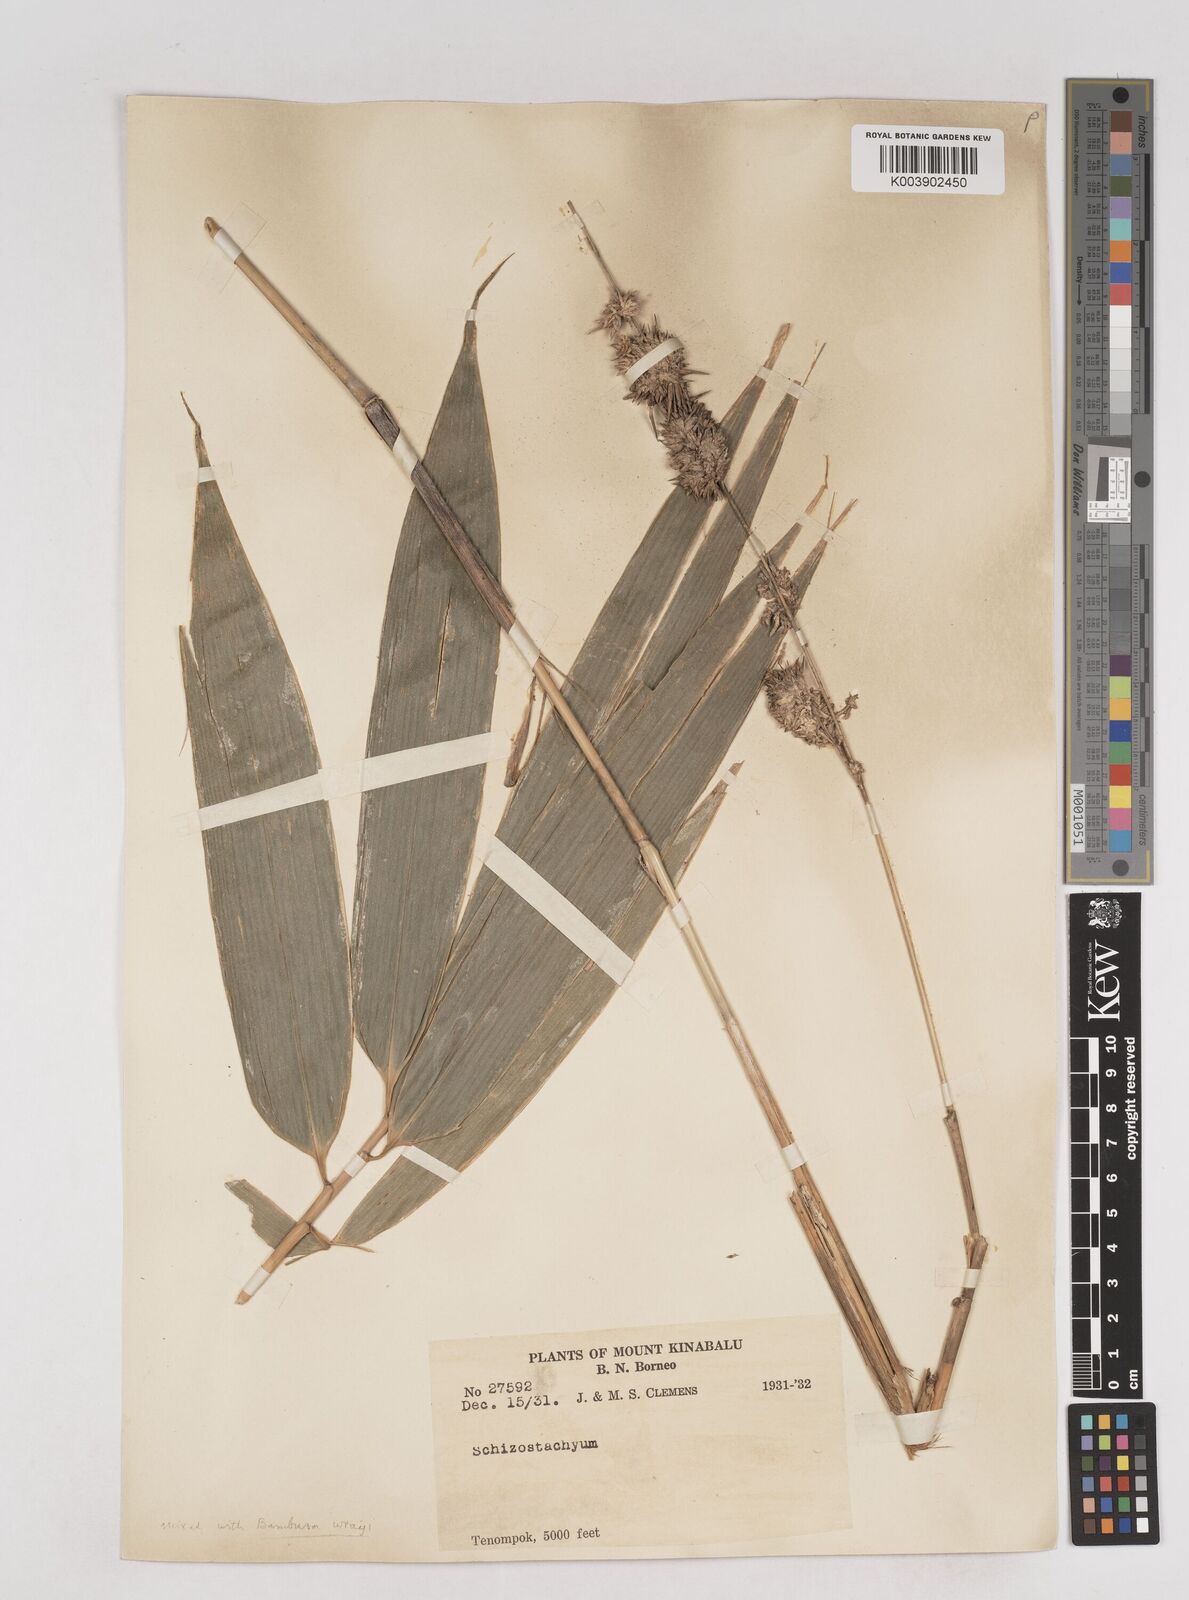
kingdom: Plantae
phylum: Tracheophyta
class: Liliopsida
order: Poales
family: Poaceae
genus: Schizostachyum
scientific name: Schizostachyum
